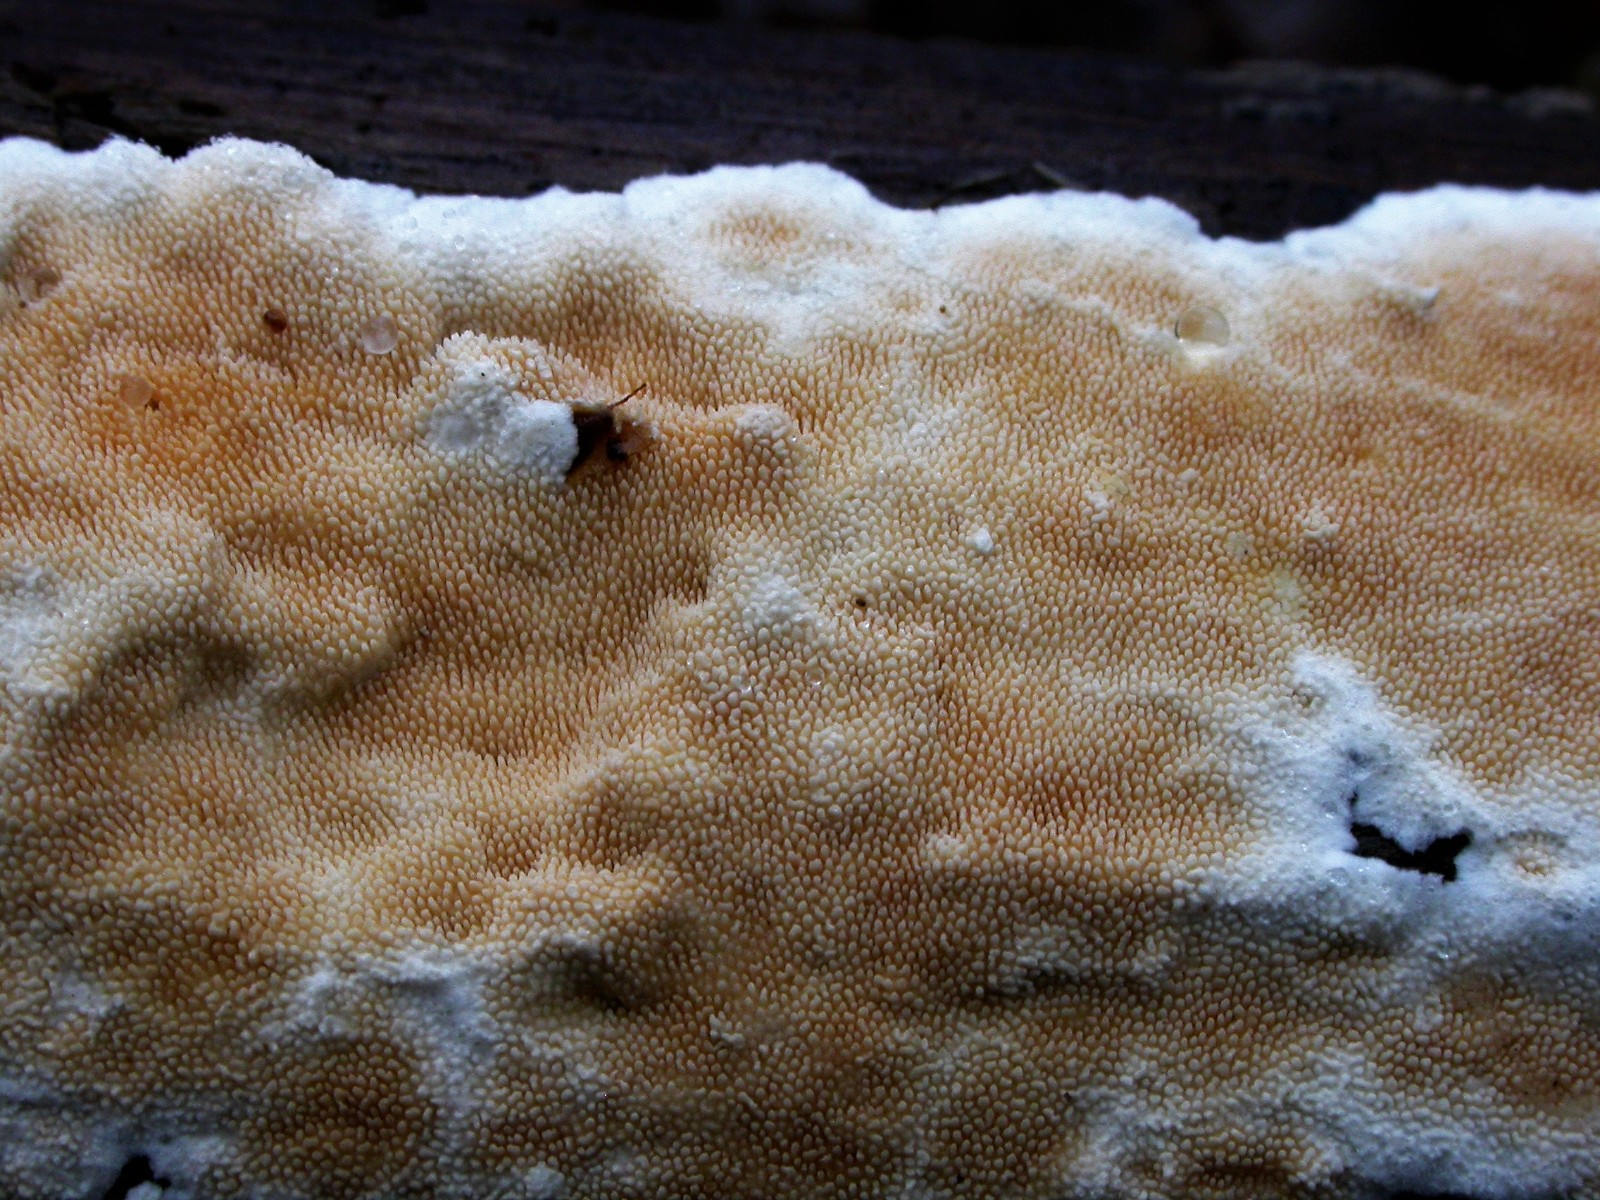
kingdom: Fungi
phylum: Basidiomycota
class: Agaricomycetes
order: Polyporales
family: Steccherinaceae
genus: Steccherinum
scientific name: Steccherinum ochraceum
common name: almindelig skønpig
